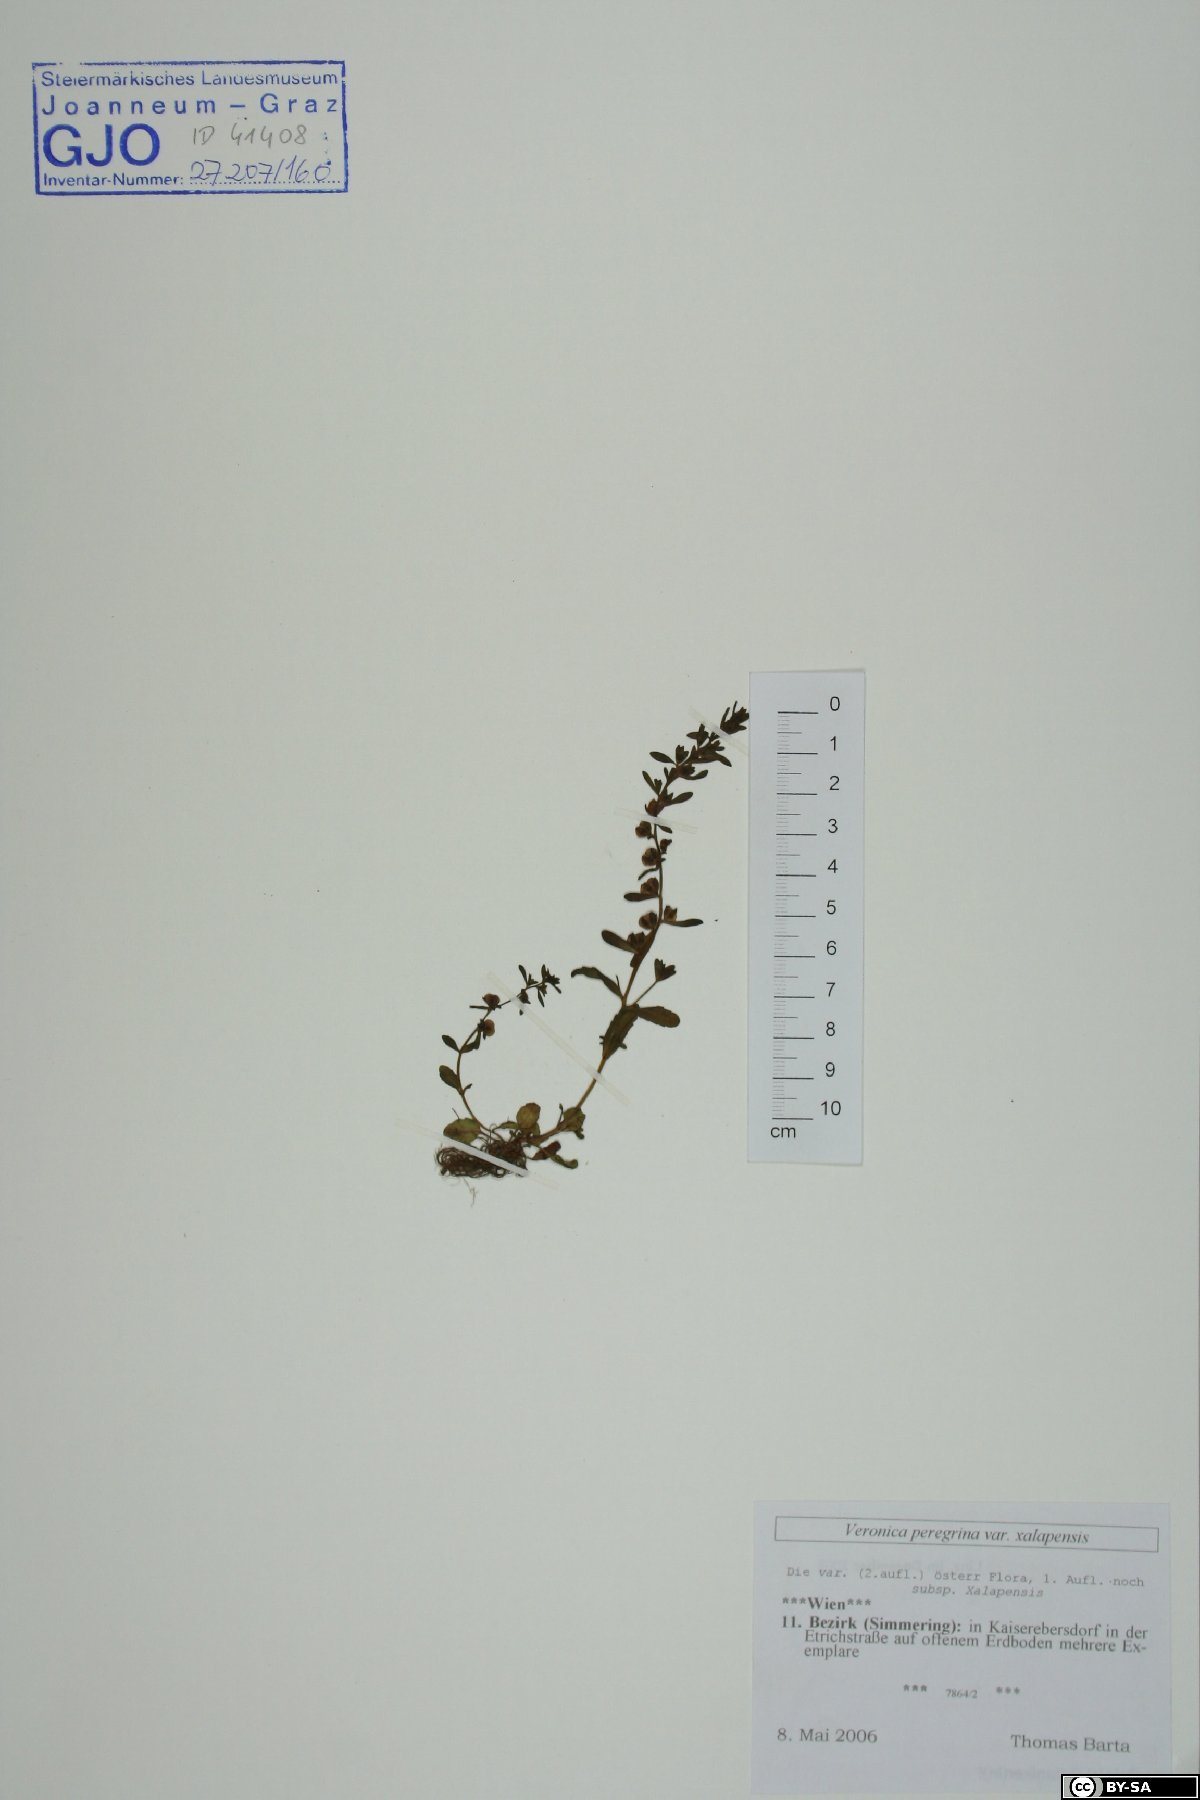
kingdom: Plantae
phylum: Tracheophyta
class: Magnoliopsida
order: Lamiales
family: Plantaginaceae
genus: Veronica
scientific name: Veronica peregrina
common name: Neckweed
